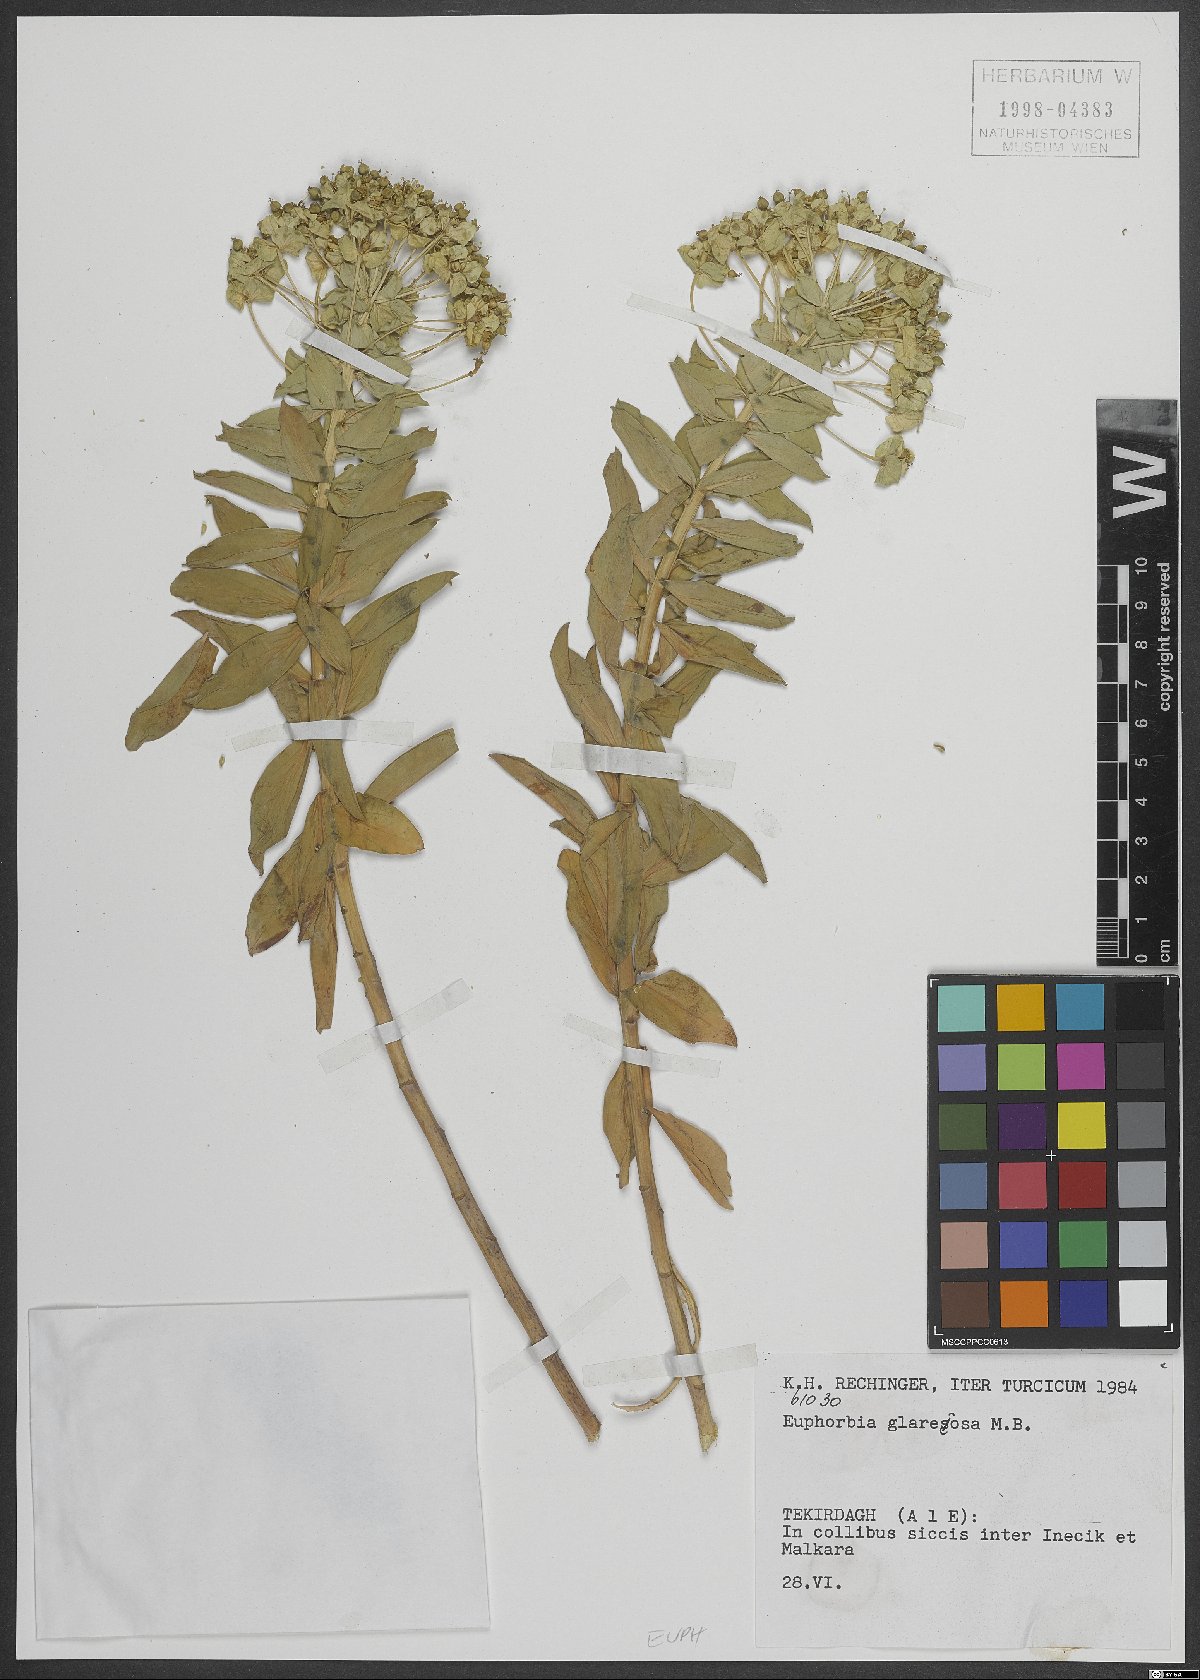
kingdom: Plantae
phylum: Tracheophyta
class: Magnoliopsida
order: Malpighiales
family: Euphorbiaceae
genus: Euphorbia
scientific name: Euphorbia glareosa
